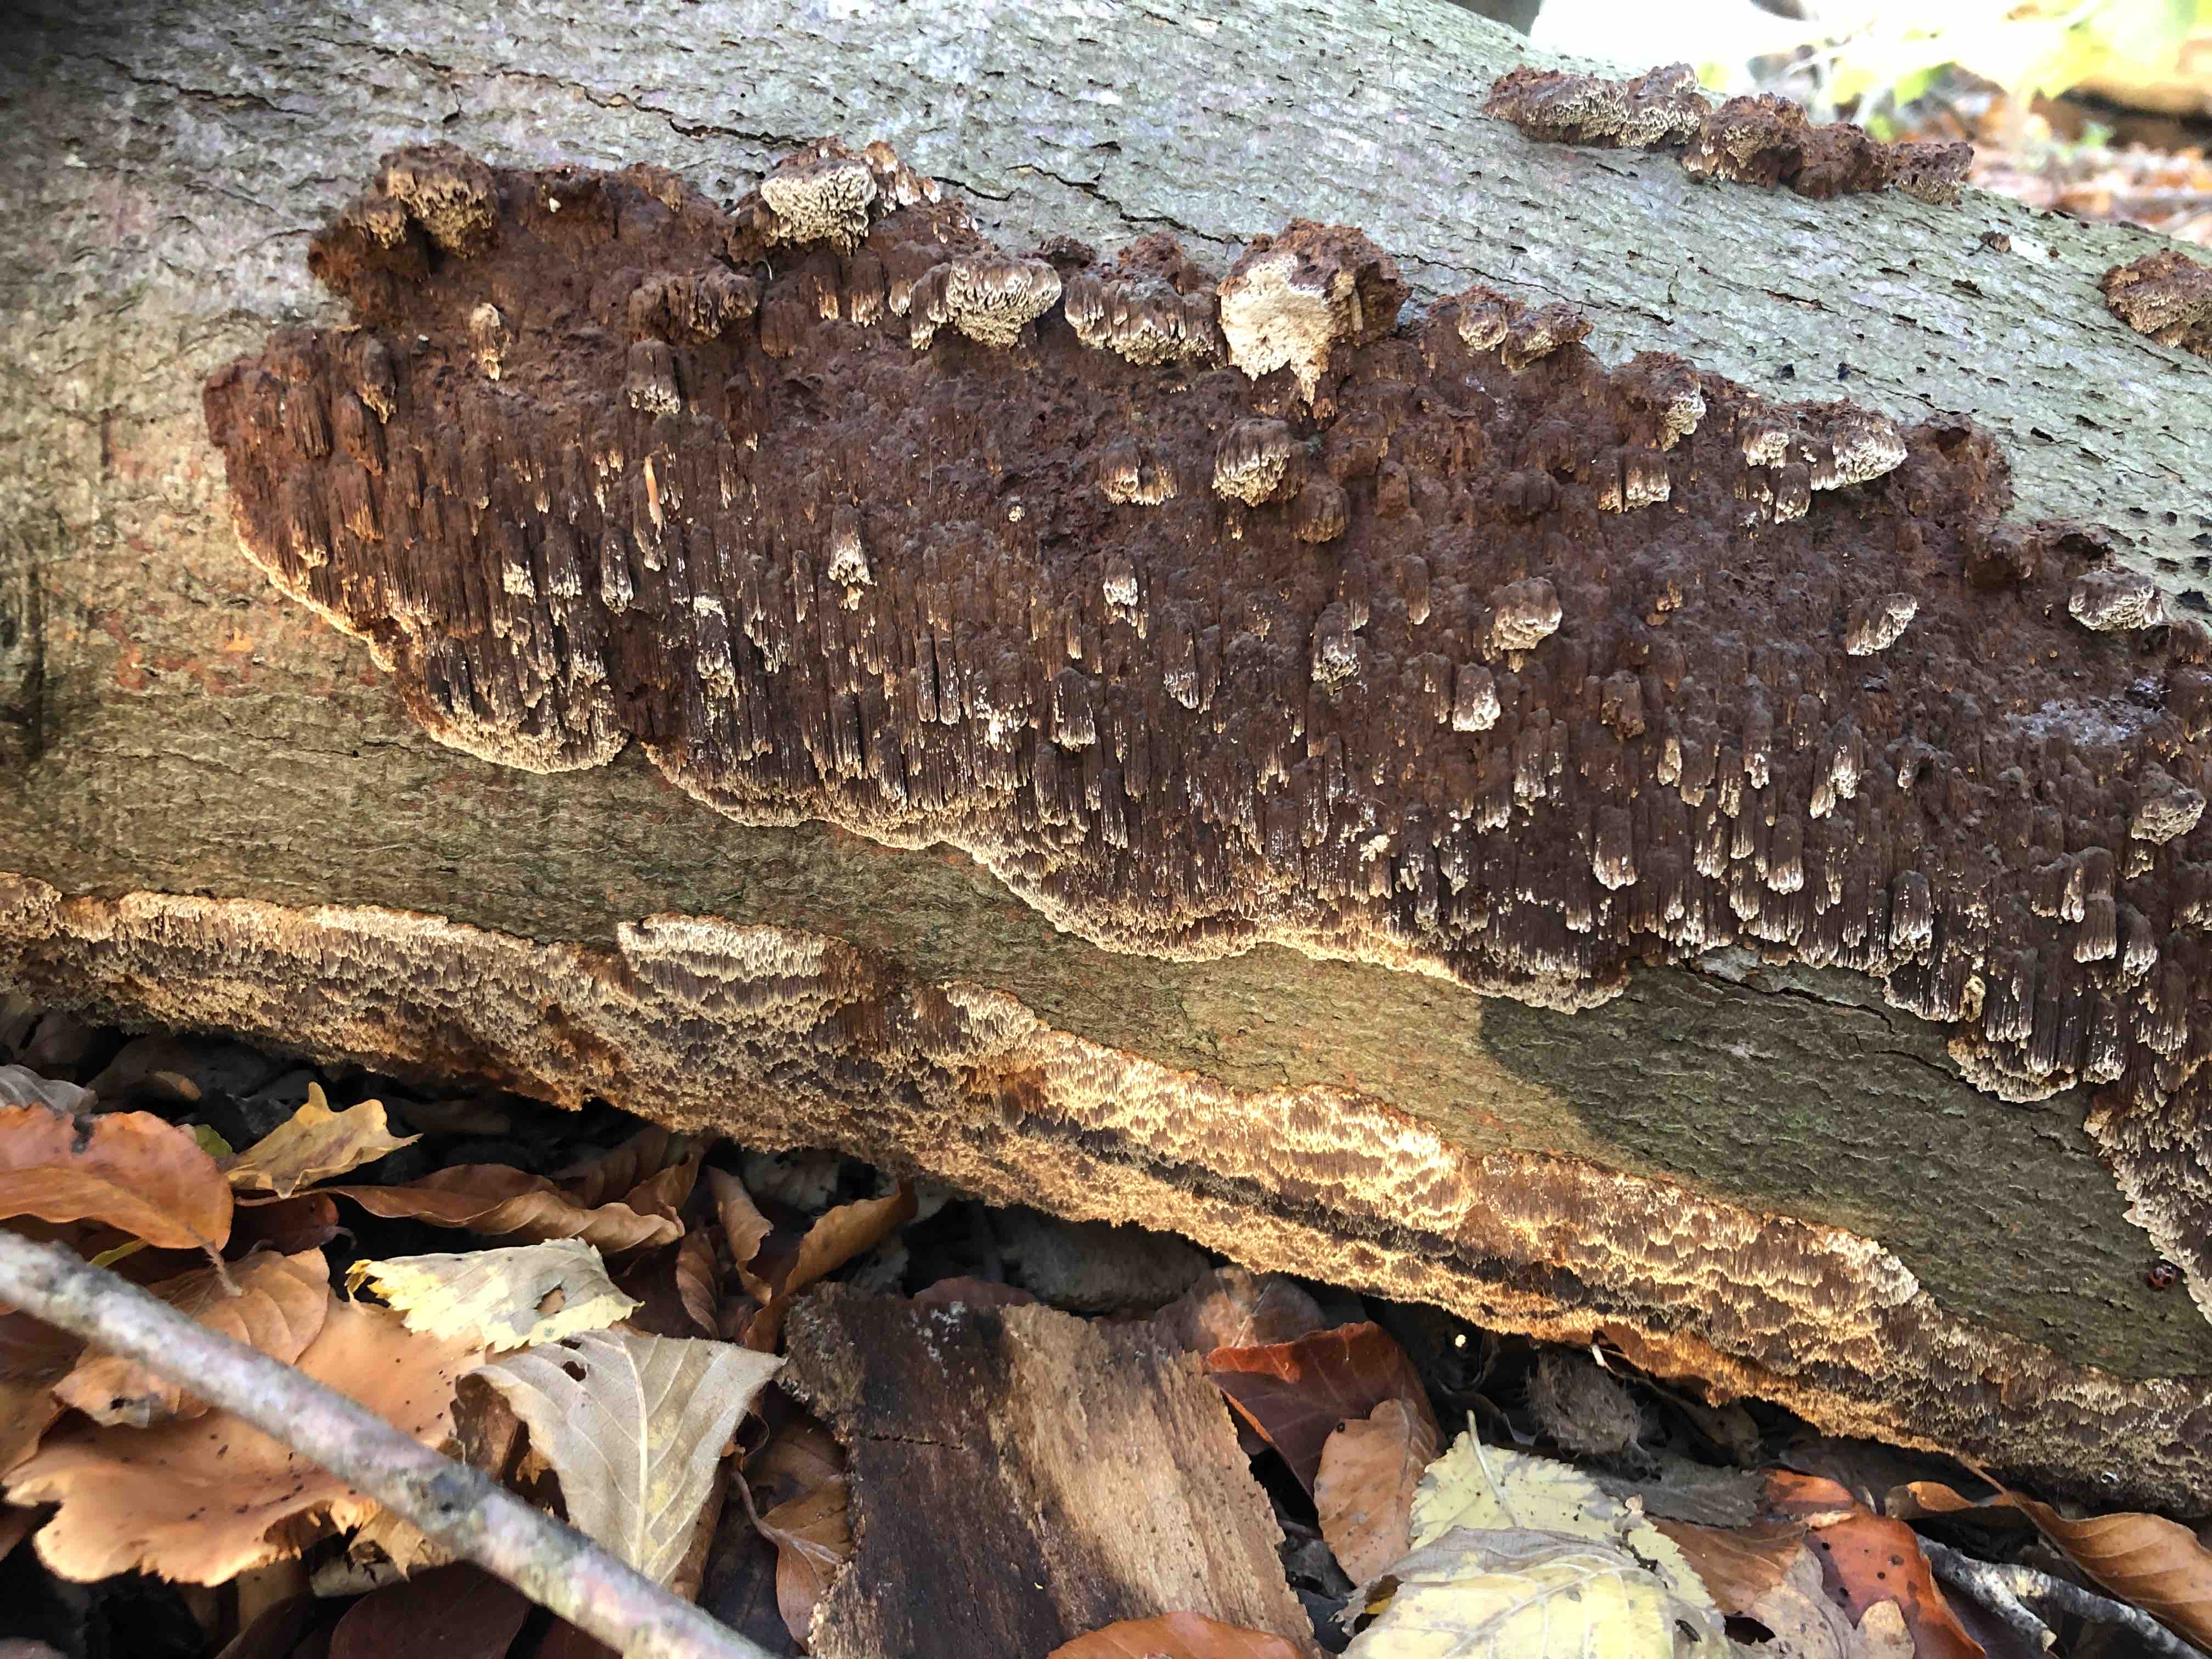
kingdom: Fungi
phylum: Basidiomycota
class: Agaricomycetes
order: Hymenochaetales
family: Hymenochaetaceae
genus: Mensularia
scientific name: Mensularia nodulosa
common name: bøge-spejlporesvamp
